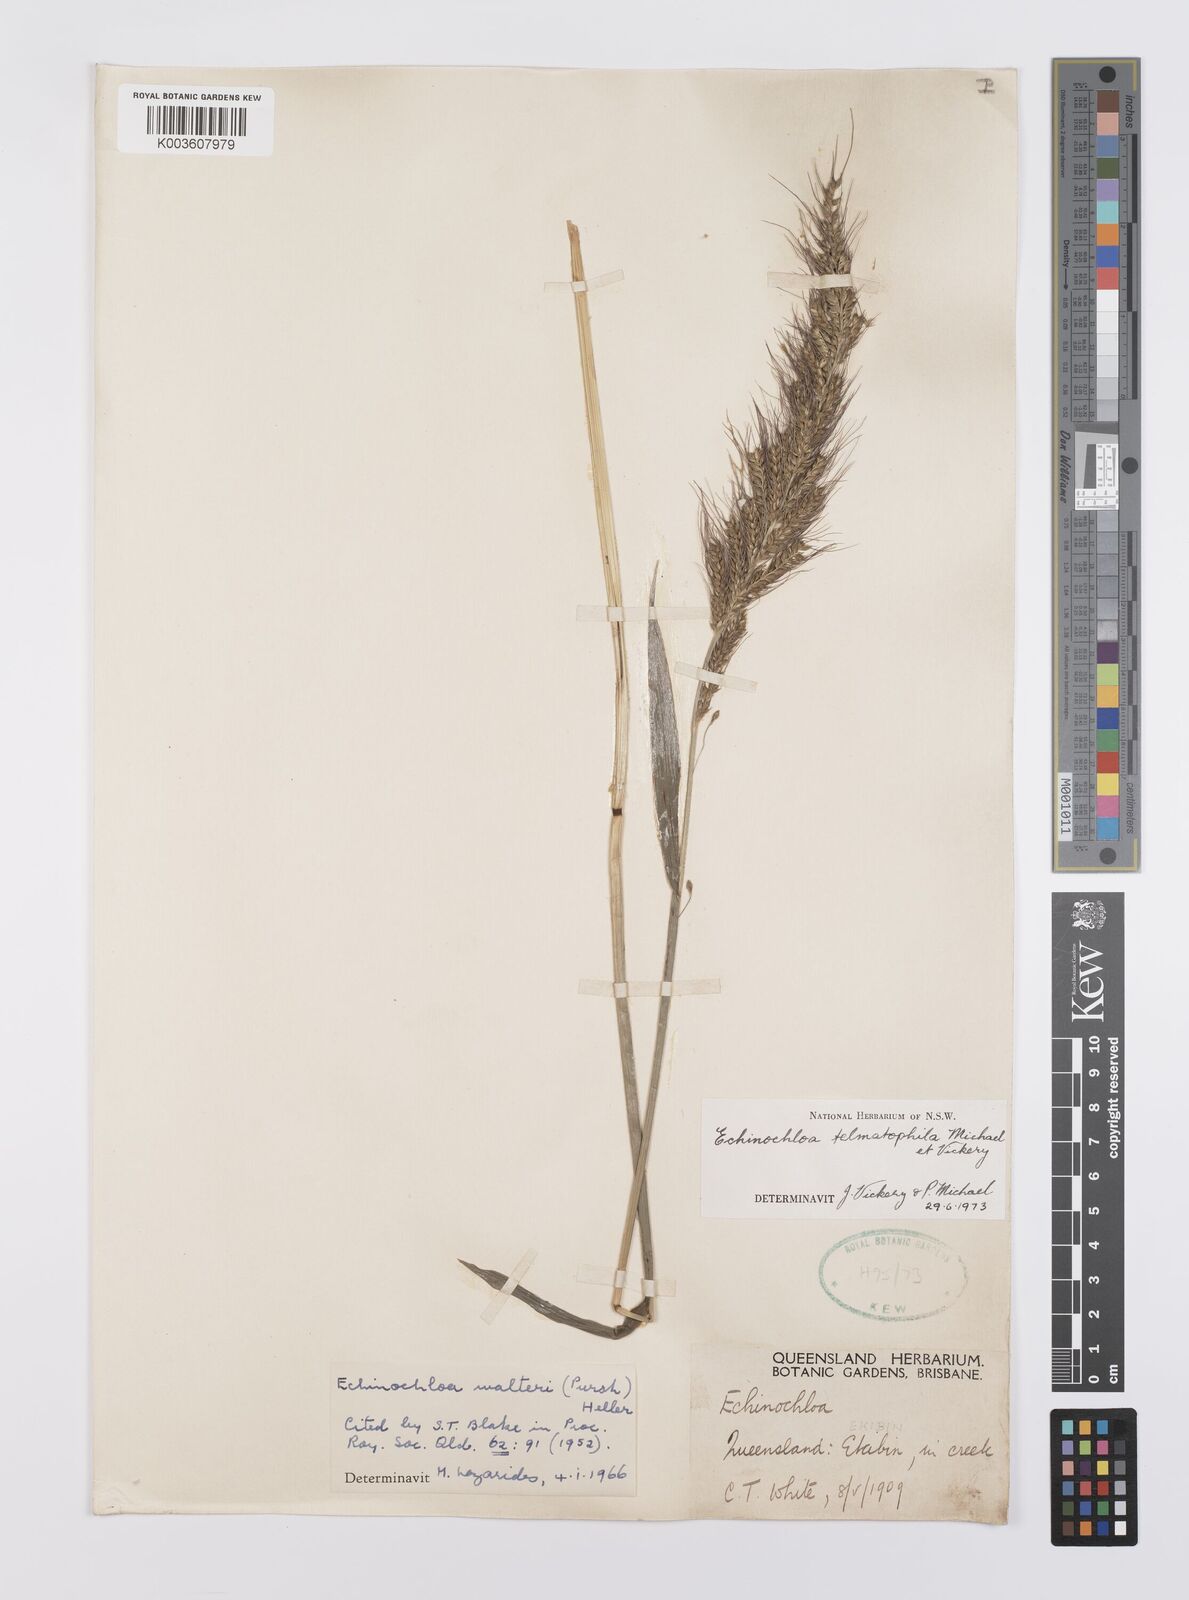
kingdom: Plantae
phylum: Tracheophyta
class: Liliopsida
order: Poales
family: Poaceae
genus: Echinochloa
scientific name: Echinochloa crus-galli
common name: Cockspur
